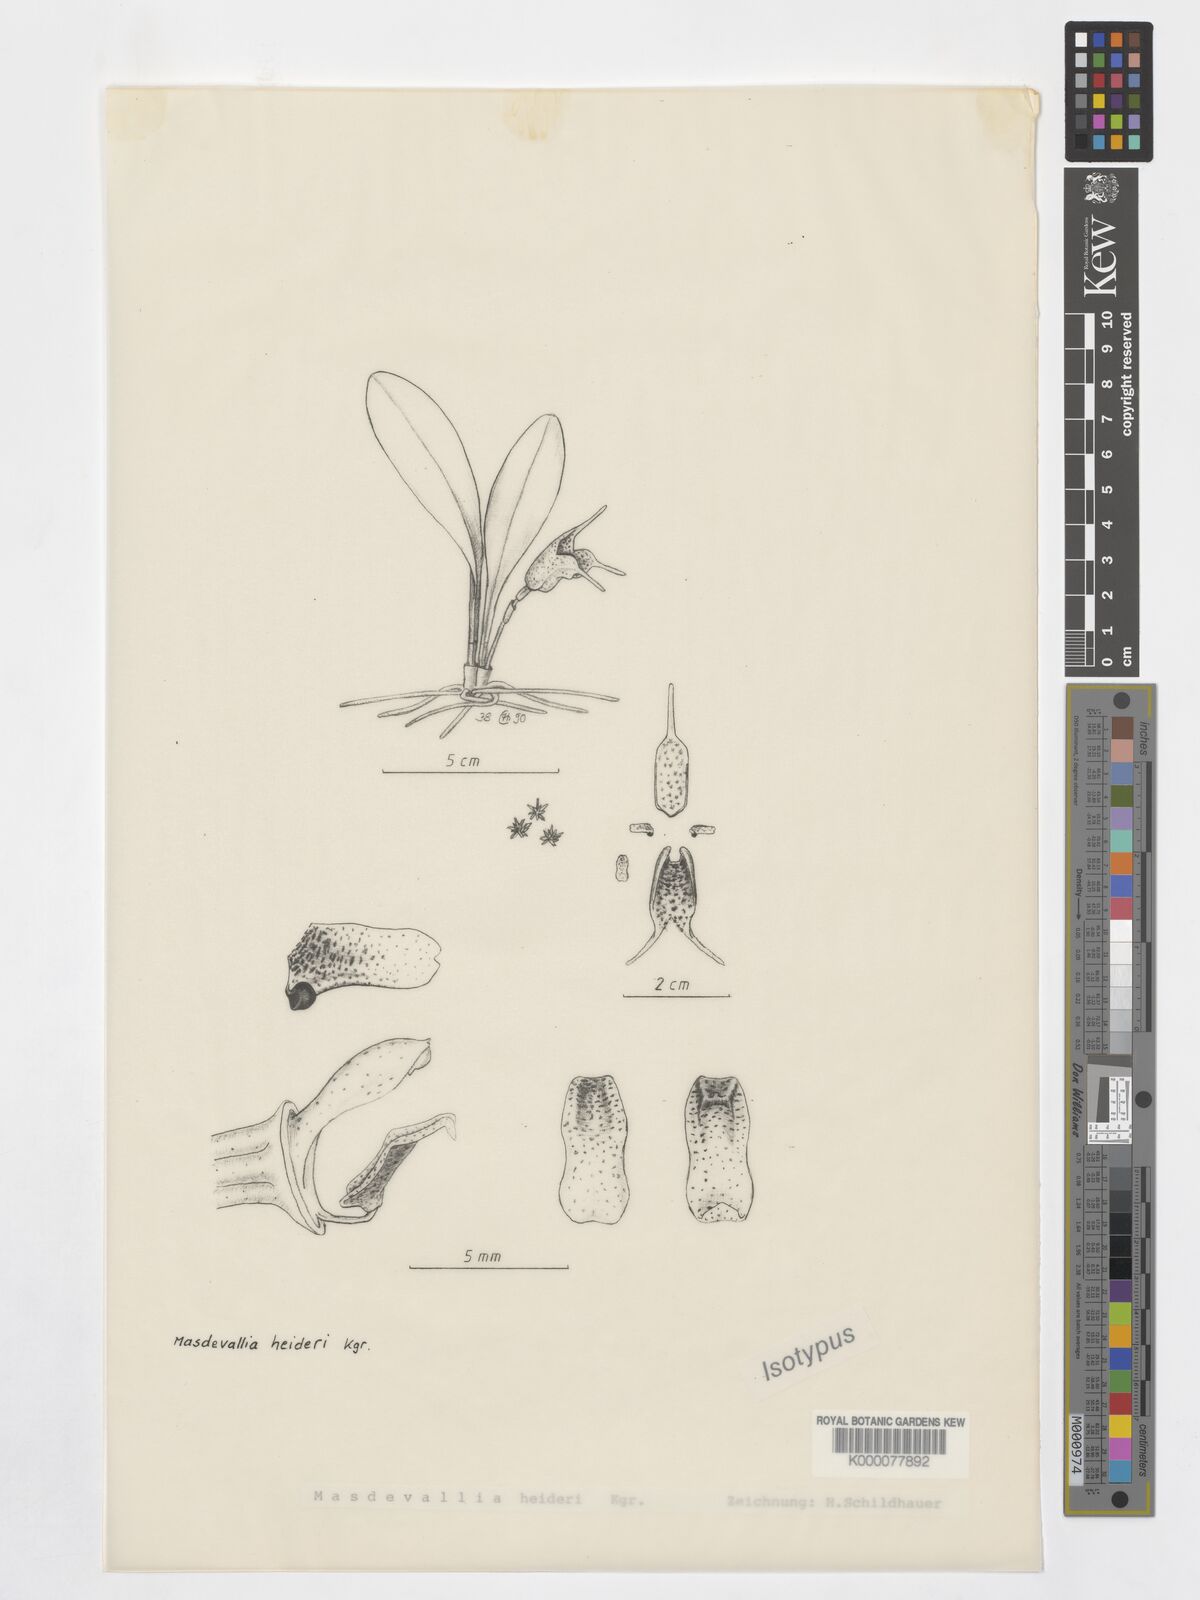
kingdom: Plantae
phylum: Tracheophyta
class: Liliopsida
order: Asparagales
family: Orchidaceae
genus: Masdevallia
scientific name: Masdevallia
